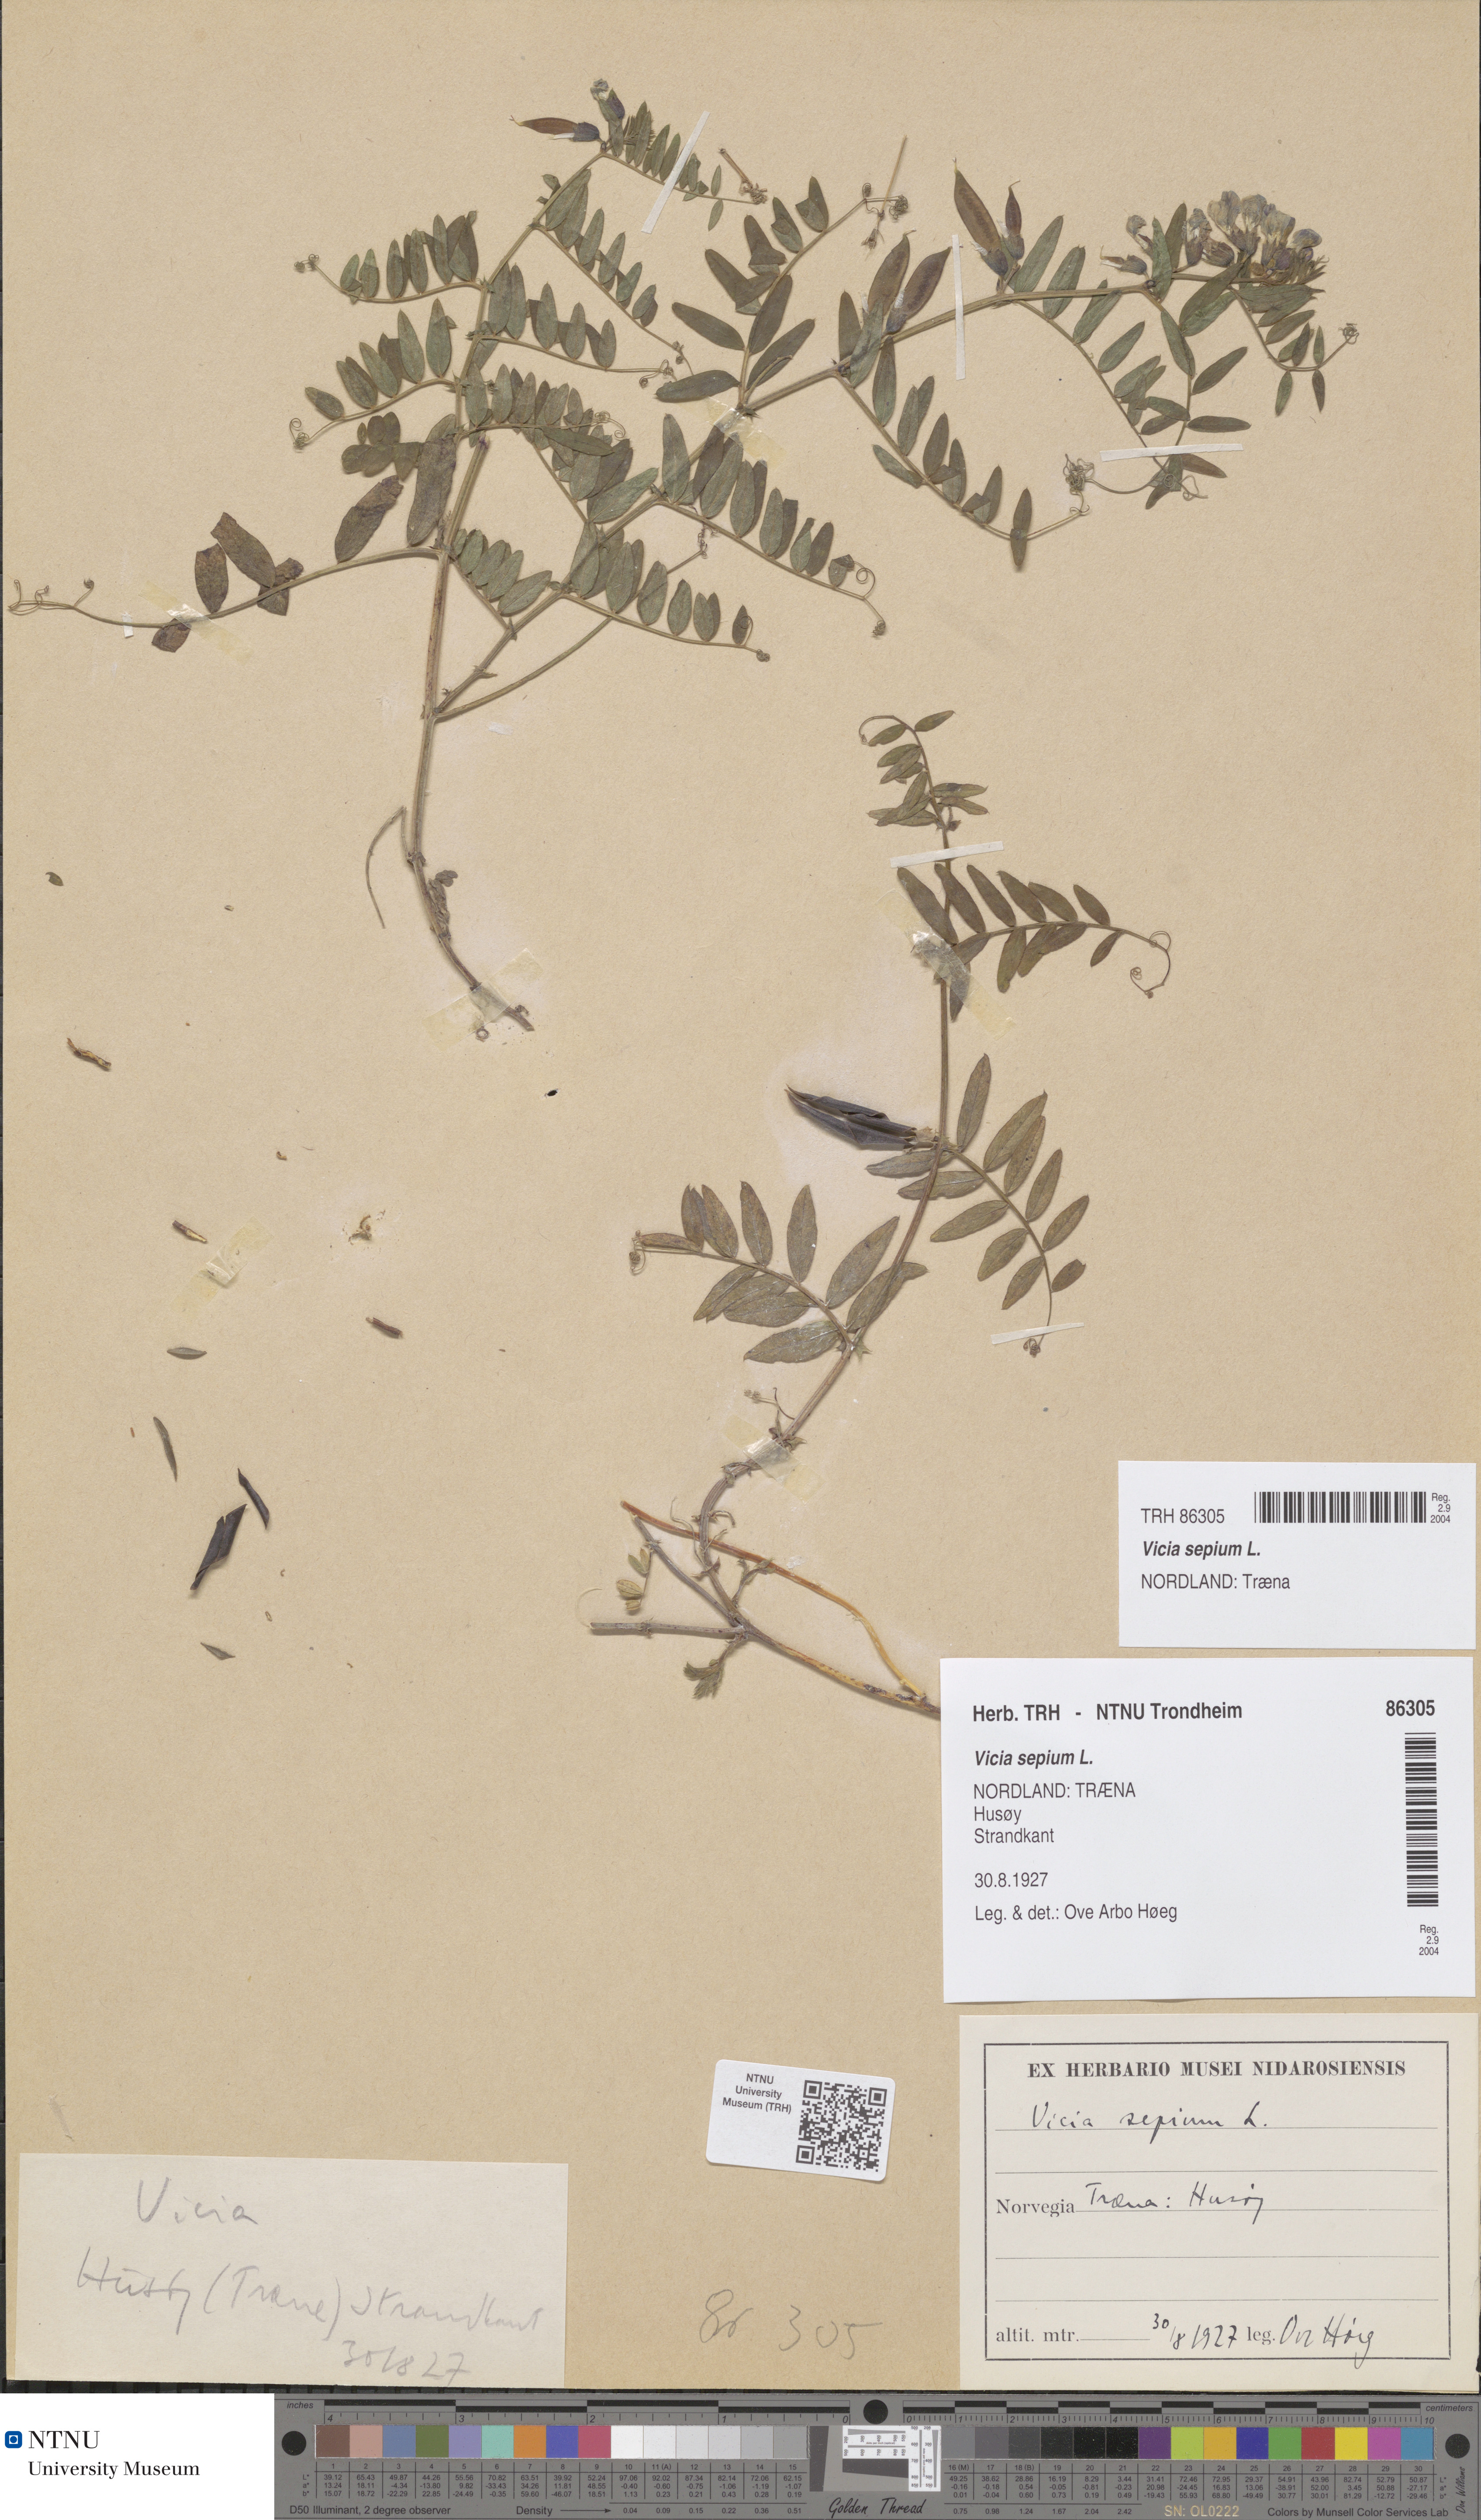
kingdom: Plantae
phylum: Tracheophyta
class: Magnoliopsida
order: Fabales
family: Fabaceae
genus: Vicia
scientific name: Vicia sepium
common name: Bush vetch
